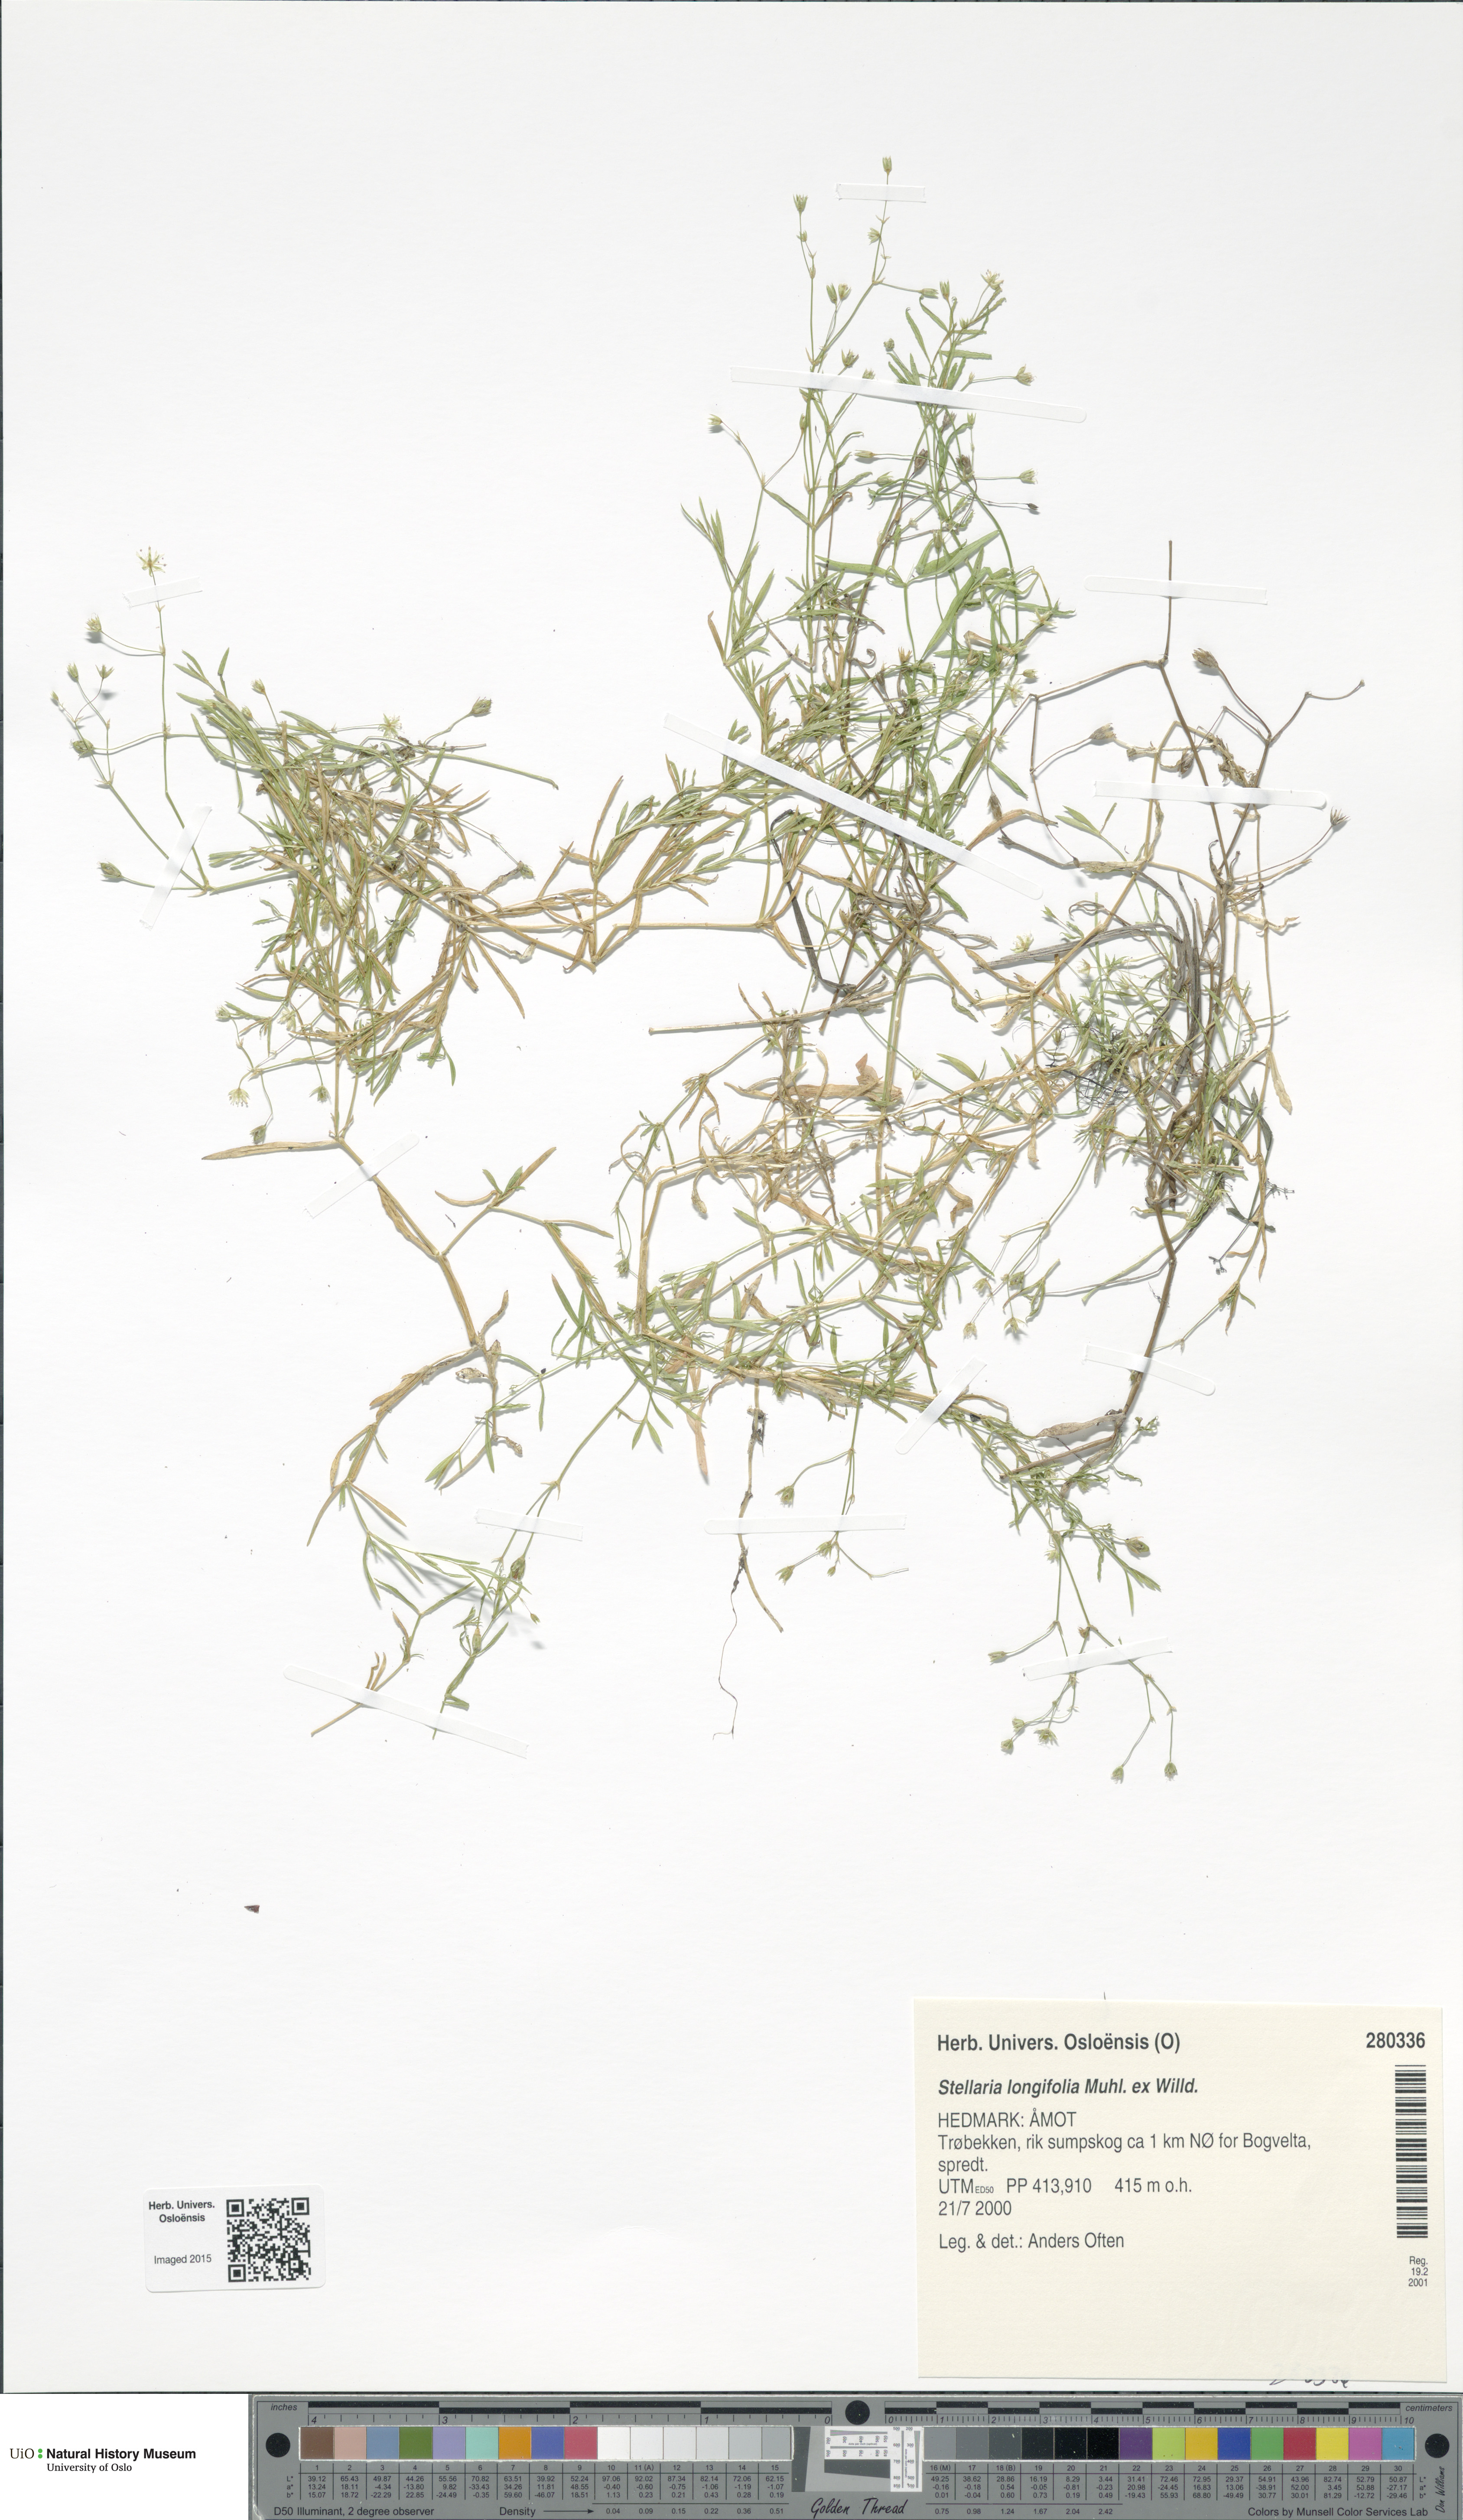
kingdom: Plantae
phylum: Tracheophyta
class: Magnoliopsida
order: Caryophyllales
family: Caryophyllaceae
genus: Stellaria
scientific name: Stellaria longifolia
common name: Long-leaved chickweed
